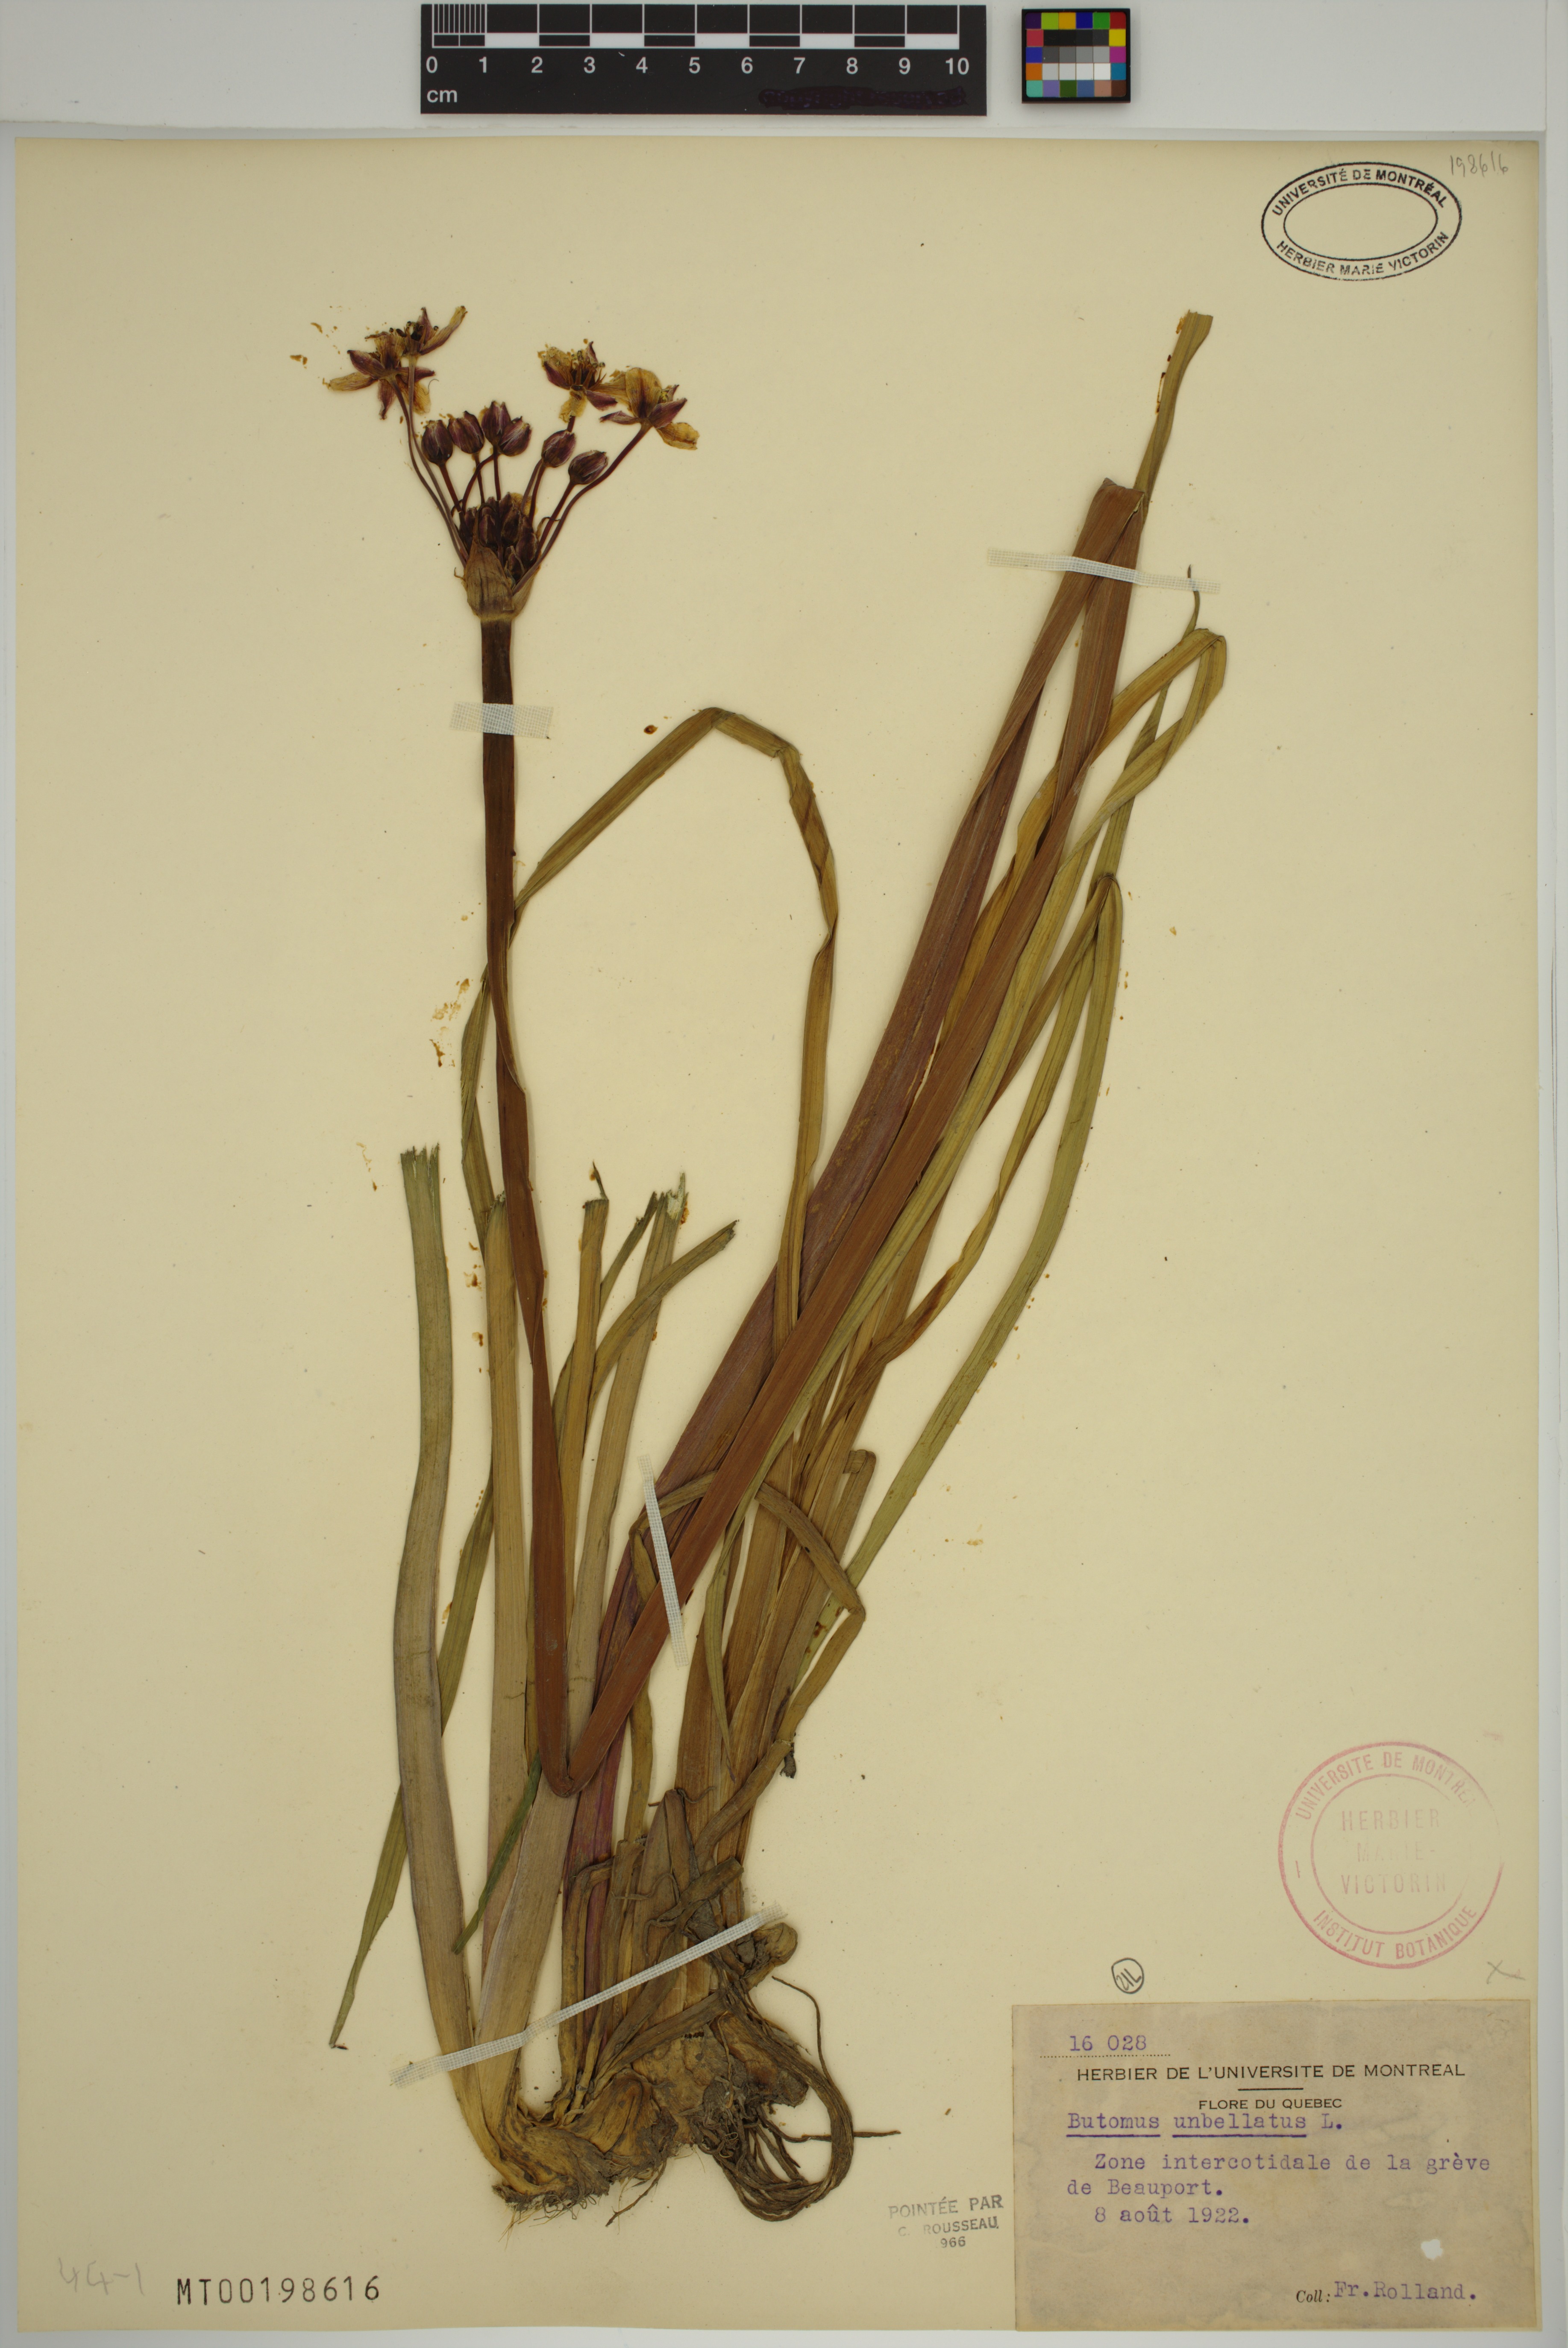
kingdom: Plantae
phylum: Tracheophyta
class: Liliopsida
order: Alismatales
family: Butomaceae
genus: Butomus
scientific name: Butomus umbellatus
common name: Flowering-rush
